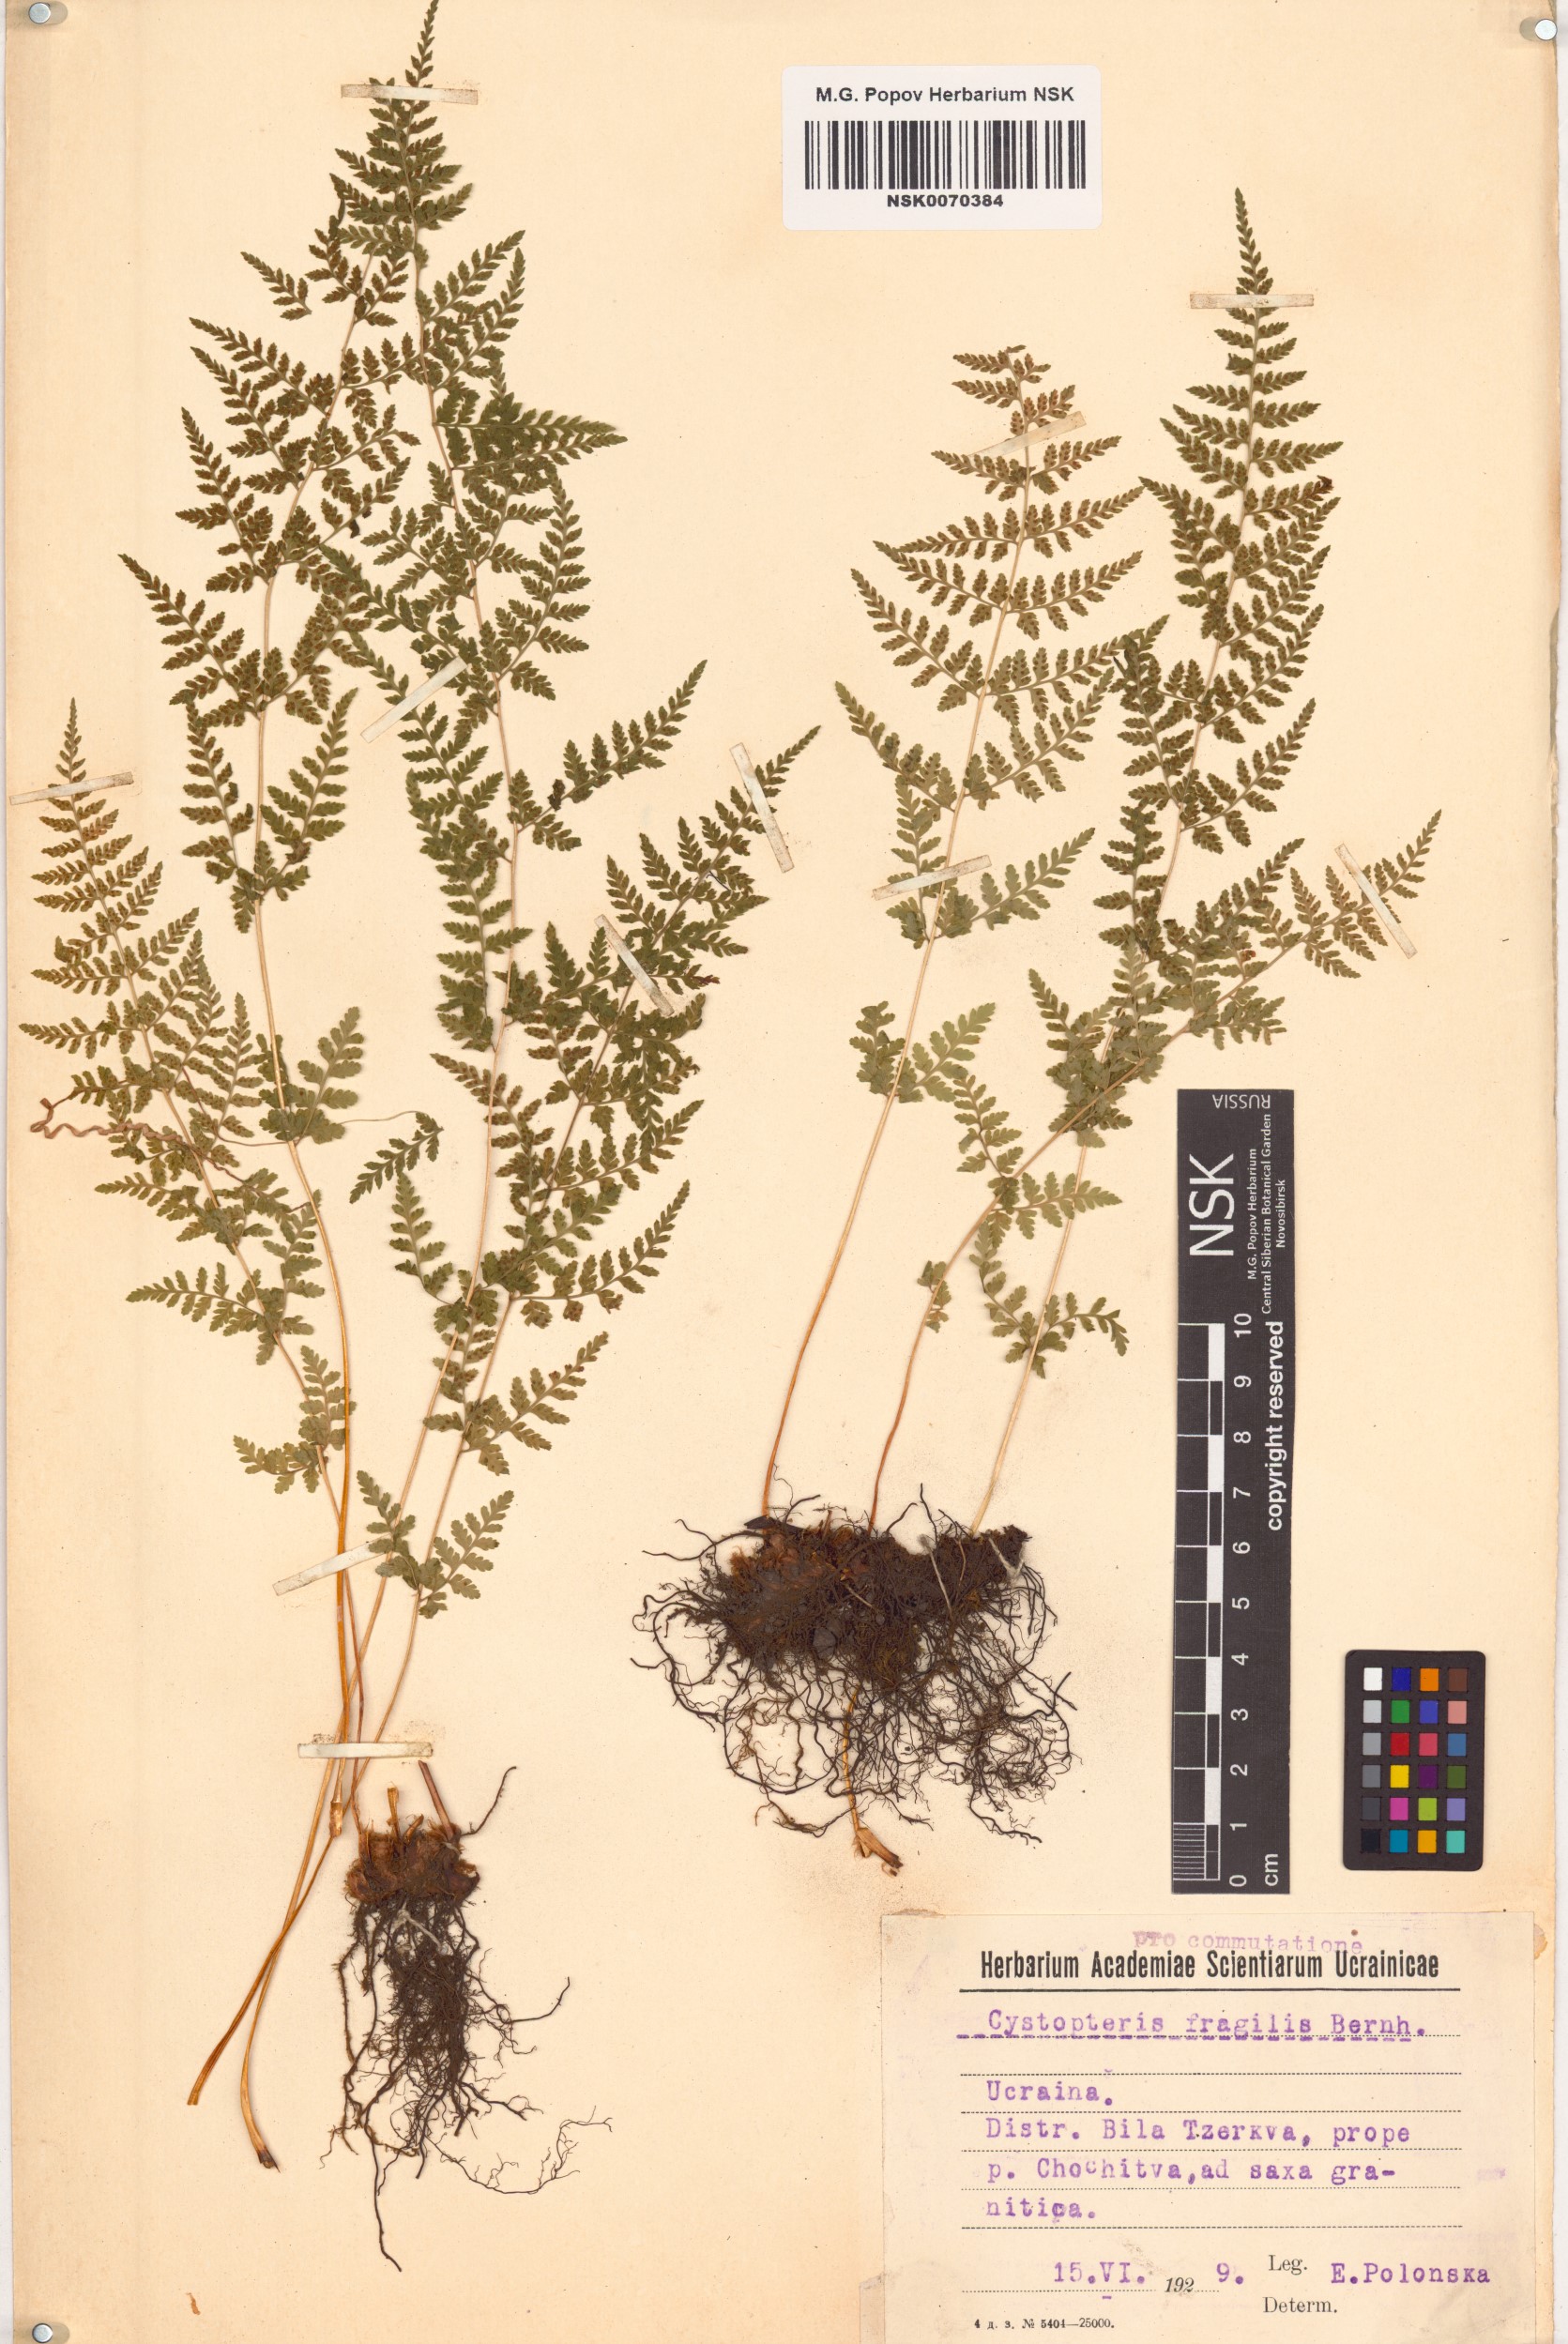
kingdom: Plantae
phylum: Tracheophyta
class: Polypodiopsida
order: Polypodiales
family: Cystopteridaceae
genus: Cystopteris
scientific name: Cystopteris fragilis
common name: Brittle bladder fern
